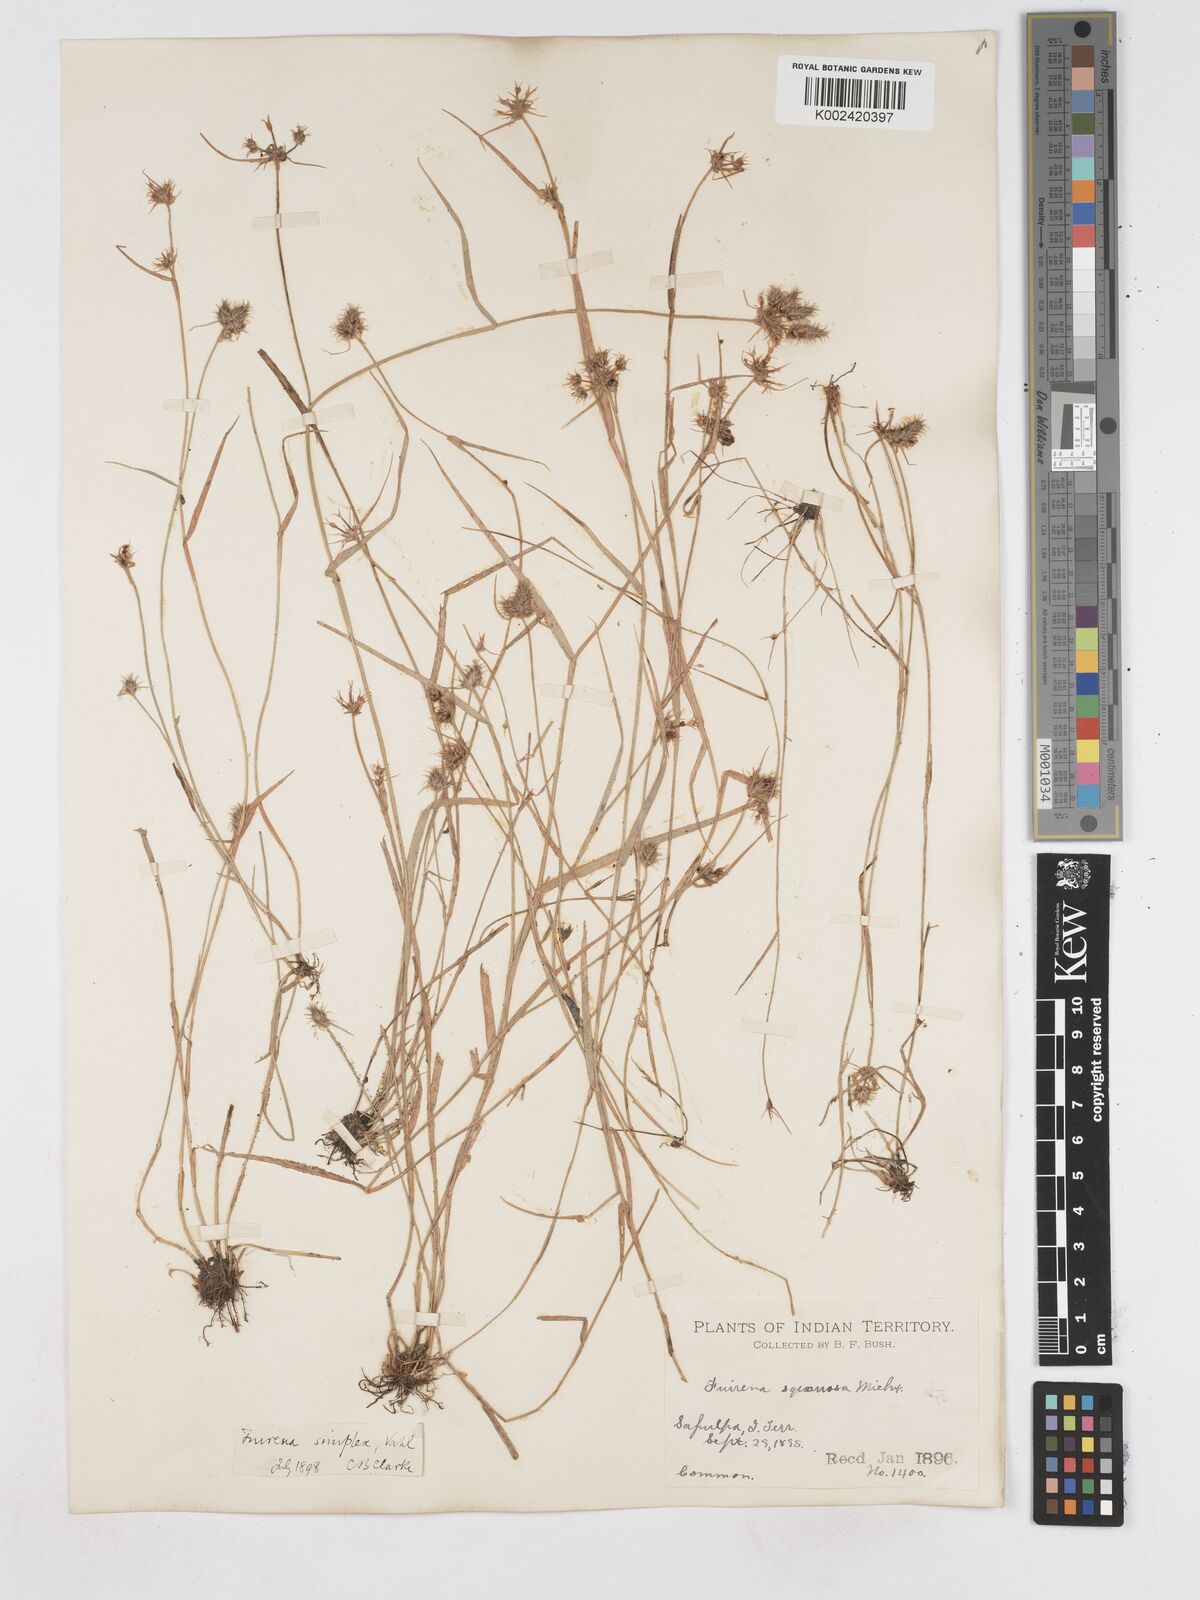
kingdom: Plantae
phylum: Tracheophyta
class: Liliopsida
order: Poales
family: Cyperaceae
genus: Fuirena
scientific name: Fuirena simplex
